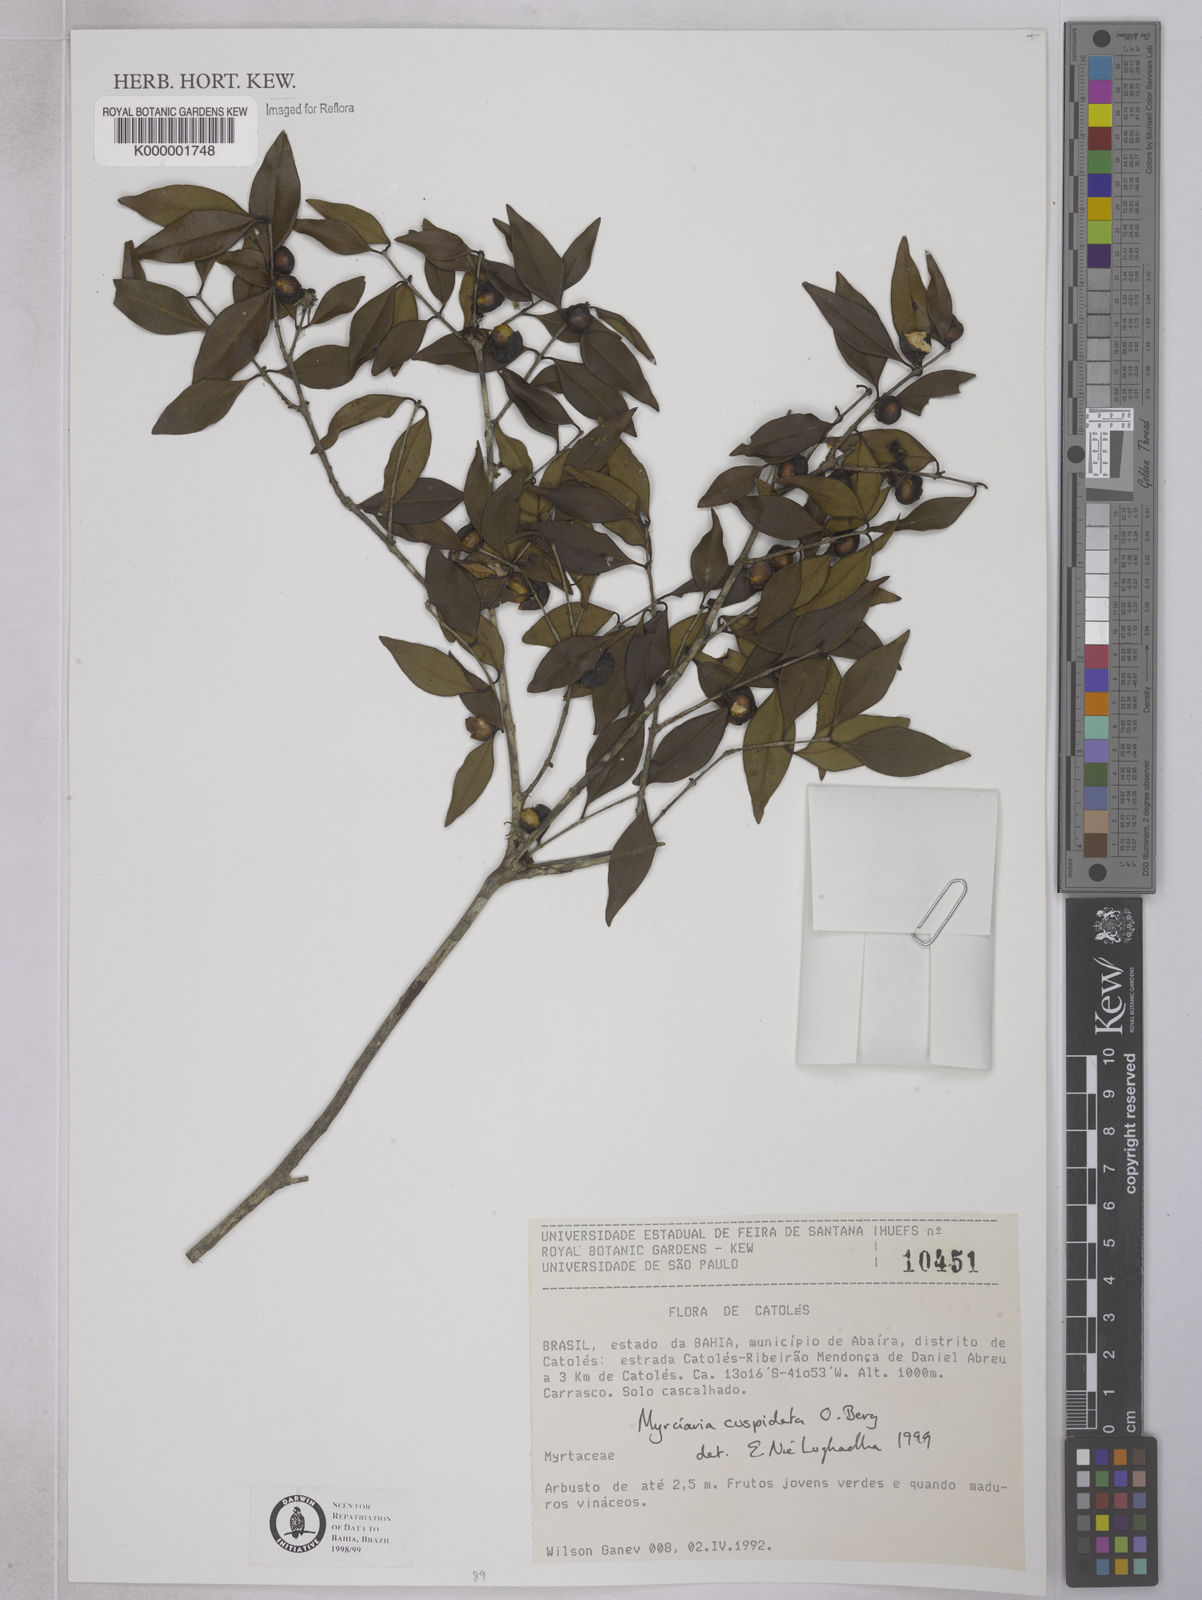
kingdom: Plantae
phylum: Tracheophyta
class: Magnoliopsida
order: Myrtales
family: Myrtaceae
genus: Myrciaria
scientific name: Myrciaria cuspidata
